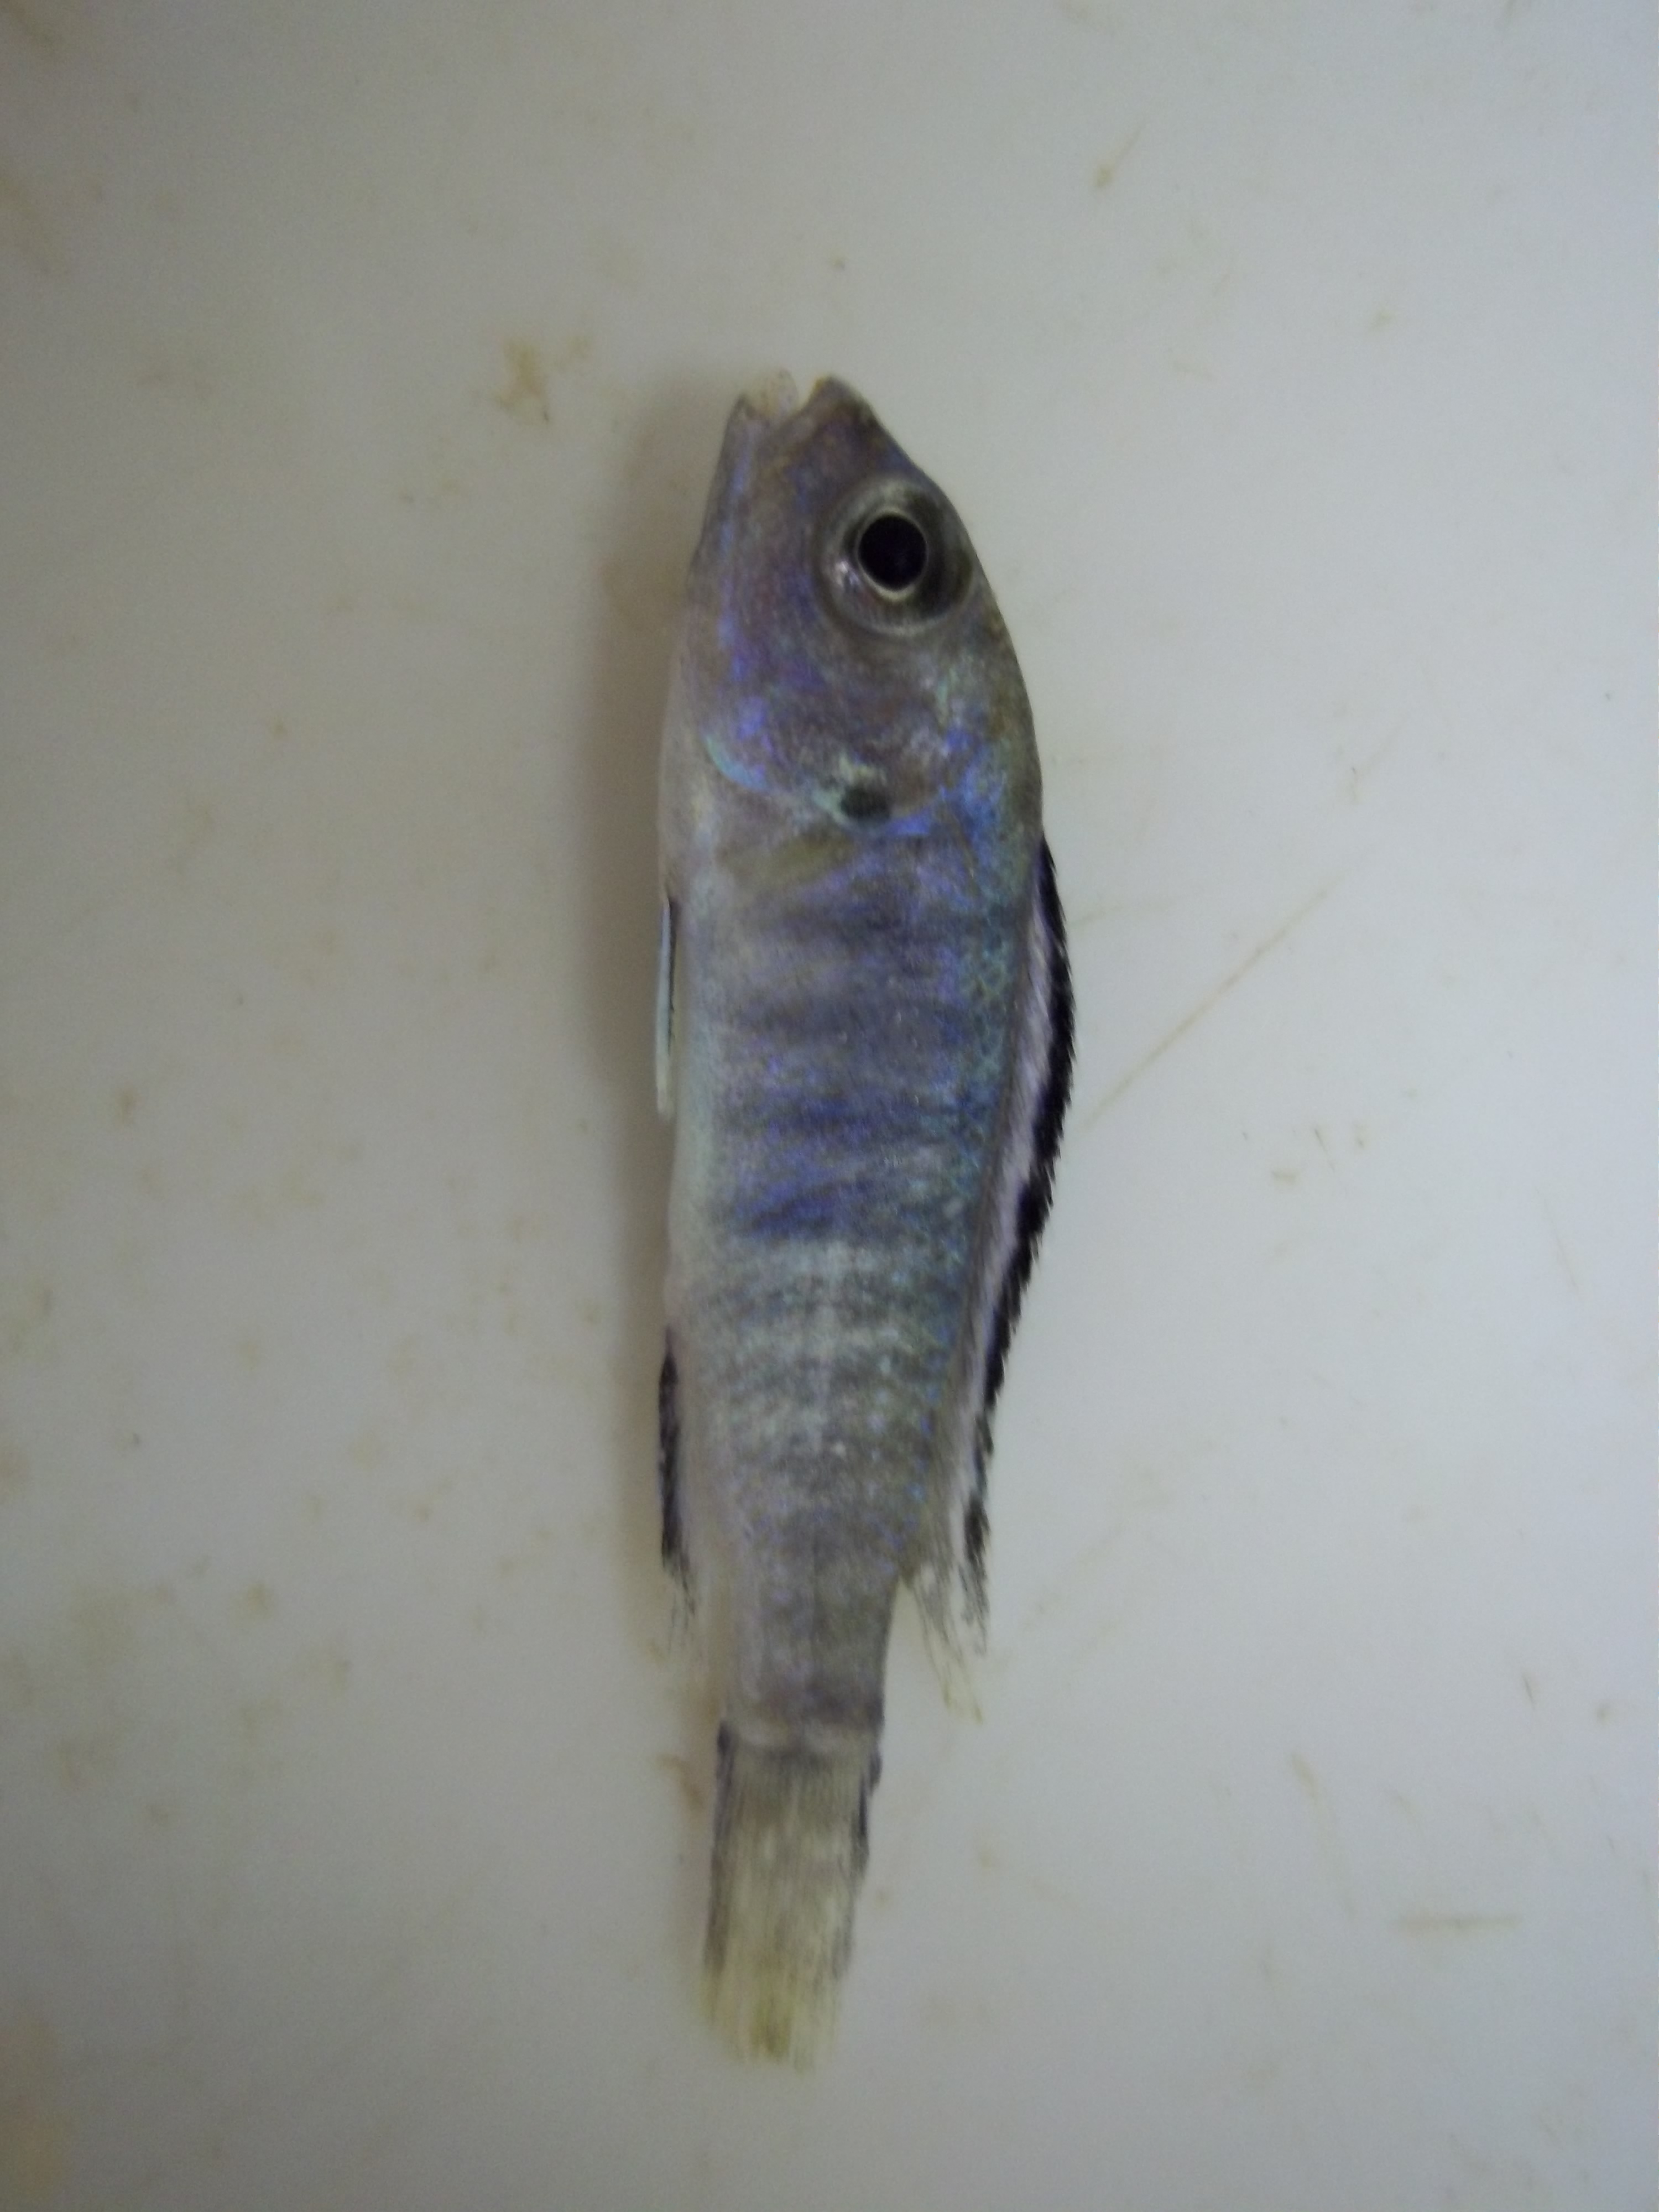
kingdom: Animalia
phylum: Chordata
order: Perciformes
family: Cichlidae
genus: Pseudotropheus
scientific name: Pseudotropheus elongatus
